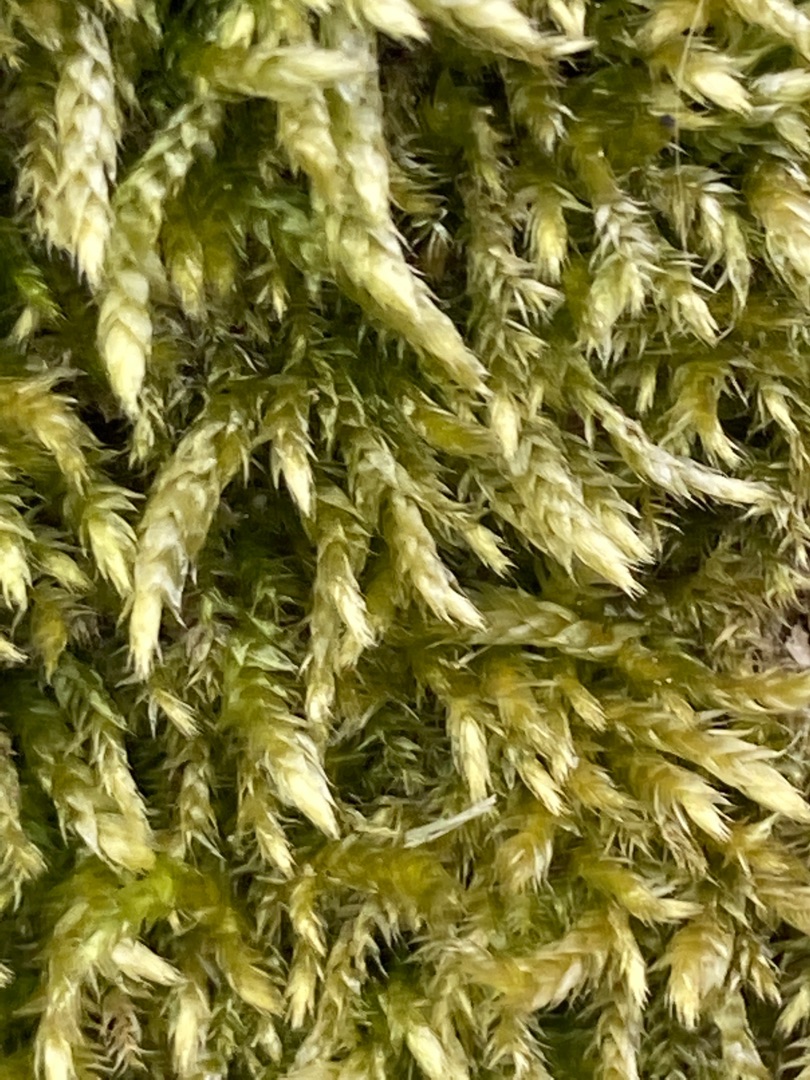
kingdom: Plantae
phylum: Bryophyta
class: Bryopsida
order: Hypnales
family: Brachytheciaceae
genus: Brachythecium
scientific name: Brachythecium rutabulum
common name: Almindelig kortkapsel
